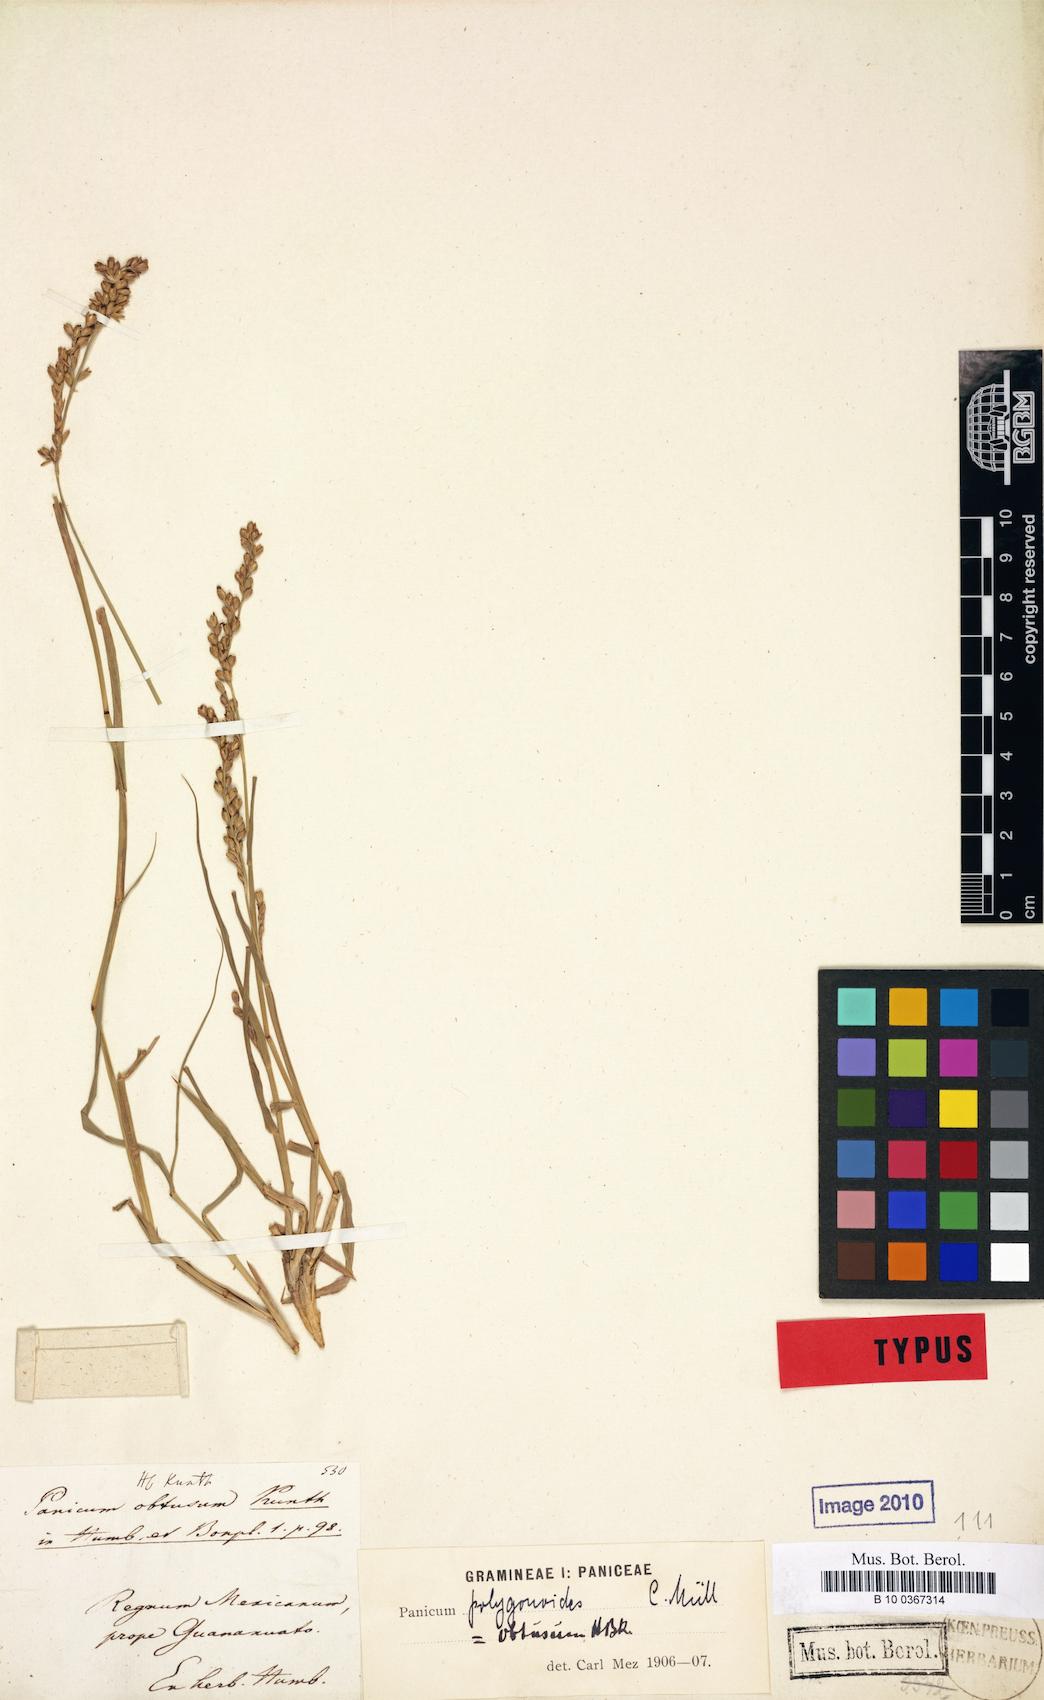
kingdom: Plantae
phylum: Tracheophyta
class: Liliopsida
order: Poales
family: Poaceae
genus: Hopia
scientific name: Hopia obtusa
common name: Vine-mesquite
